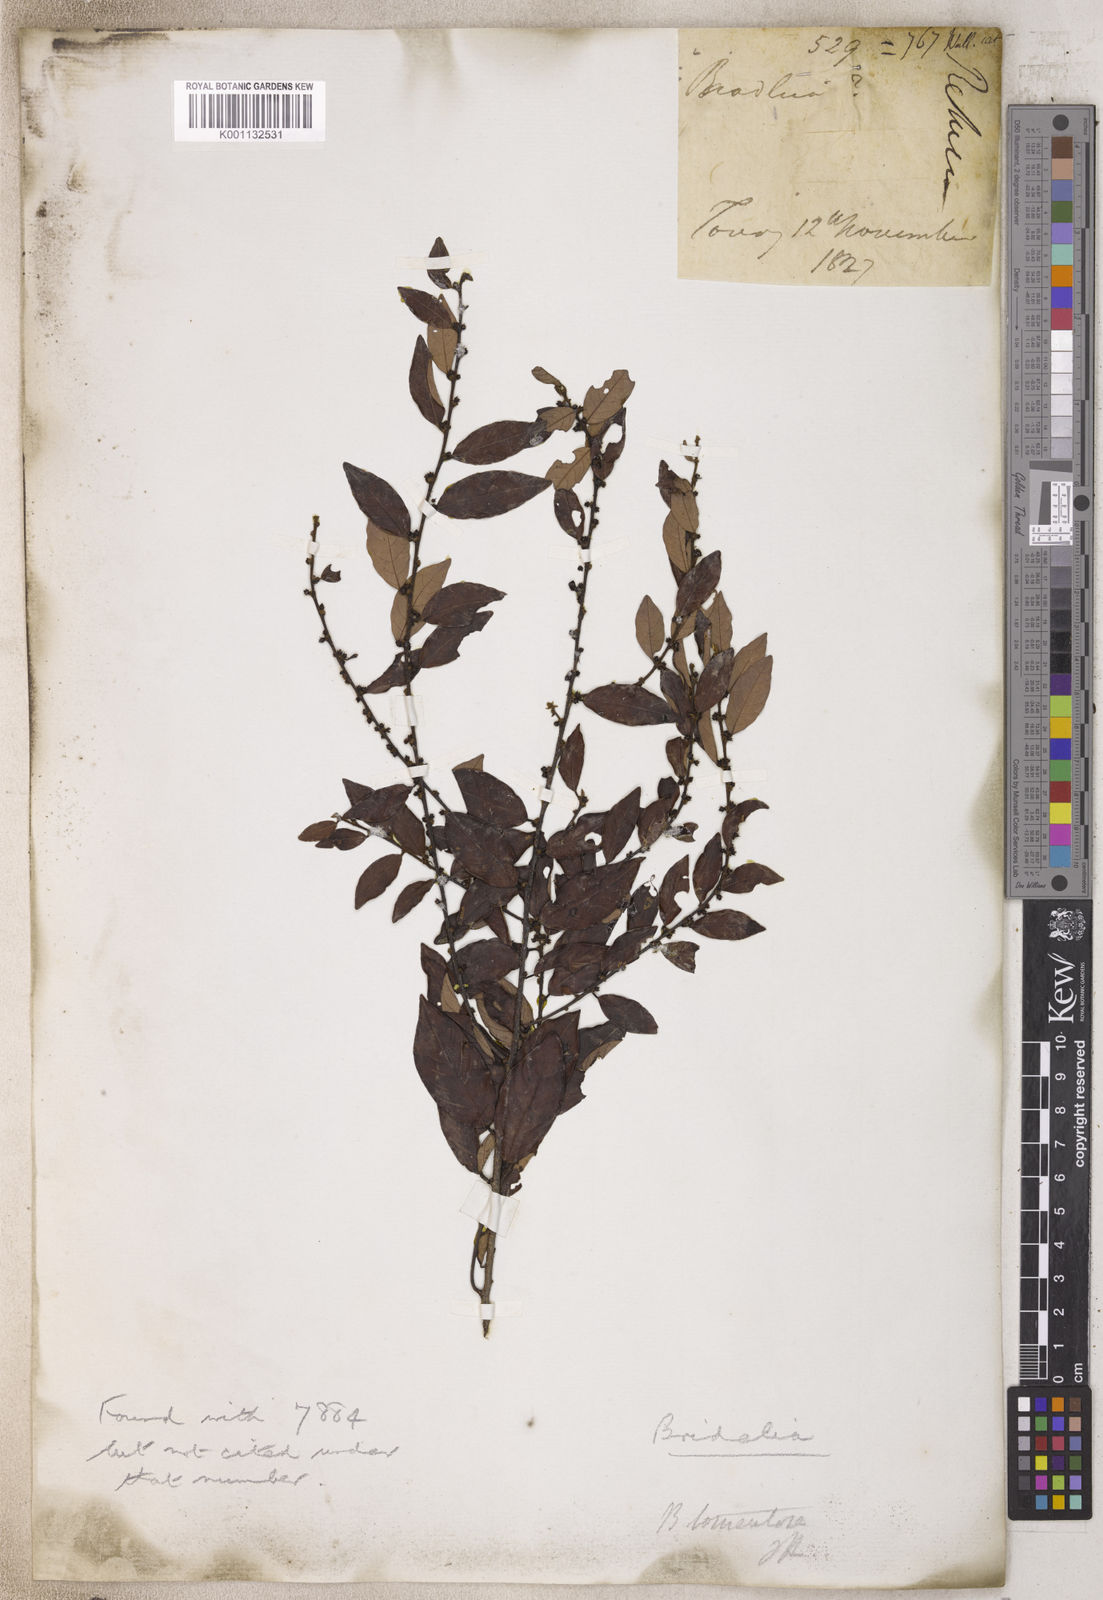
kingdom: Plantae
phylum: Tracheophyta
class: Magnoliopsida
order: Malpighiales
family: Phyllanthaceae
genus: Bridelia
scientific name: Bridelia
